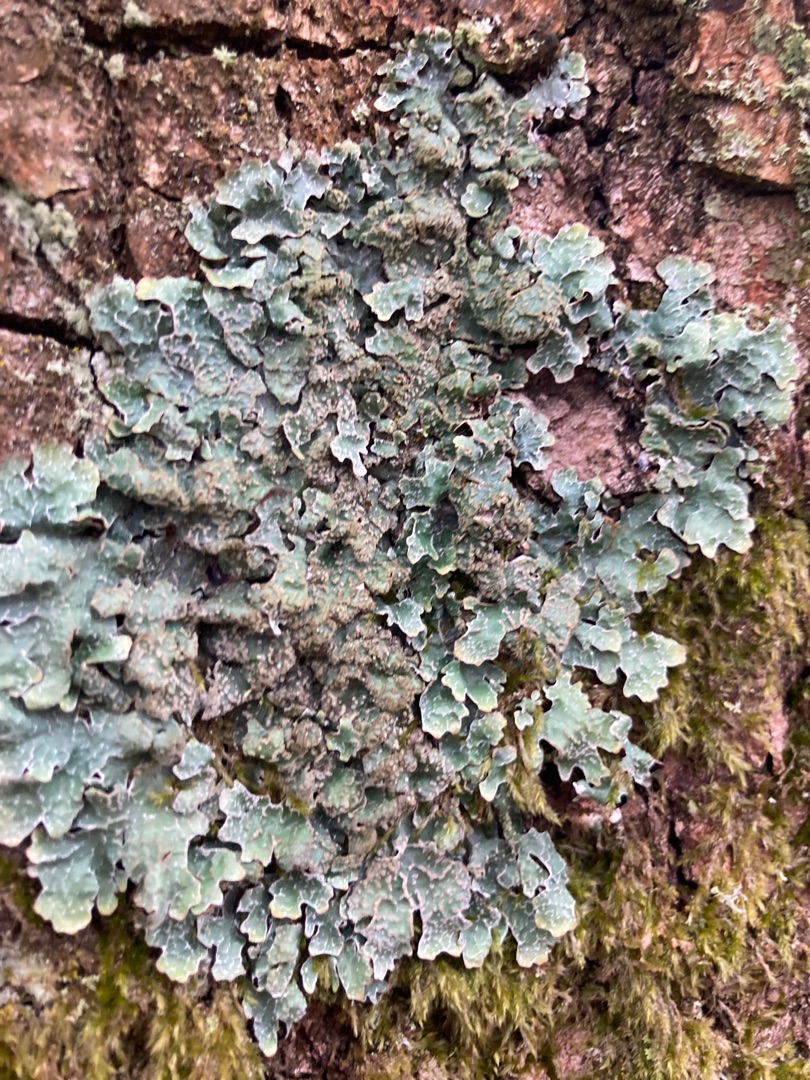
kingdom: Fungi
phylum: Ascomycota
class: Lecanoromycetes
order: Lecanorales
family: Parmeliaceae
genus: Parmelia
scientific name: Parmelia sulcata
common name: Rynket skållav
